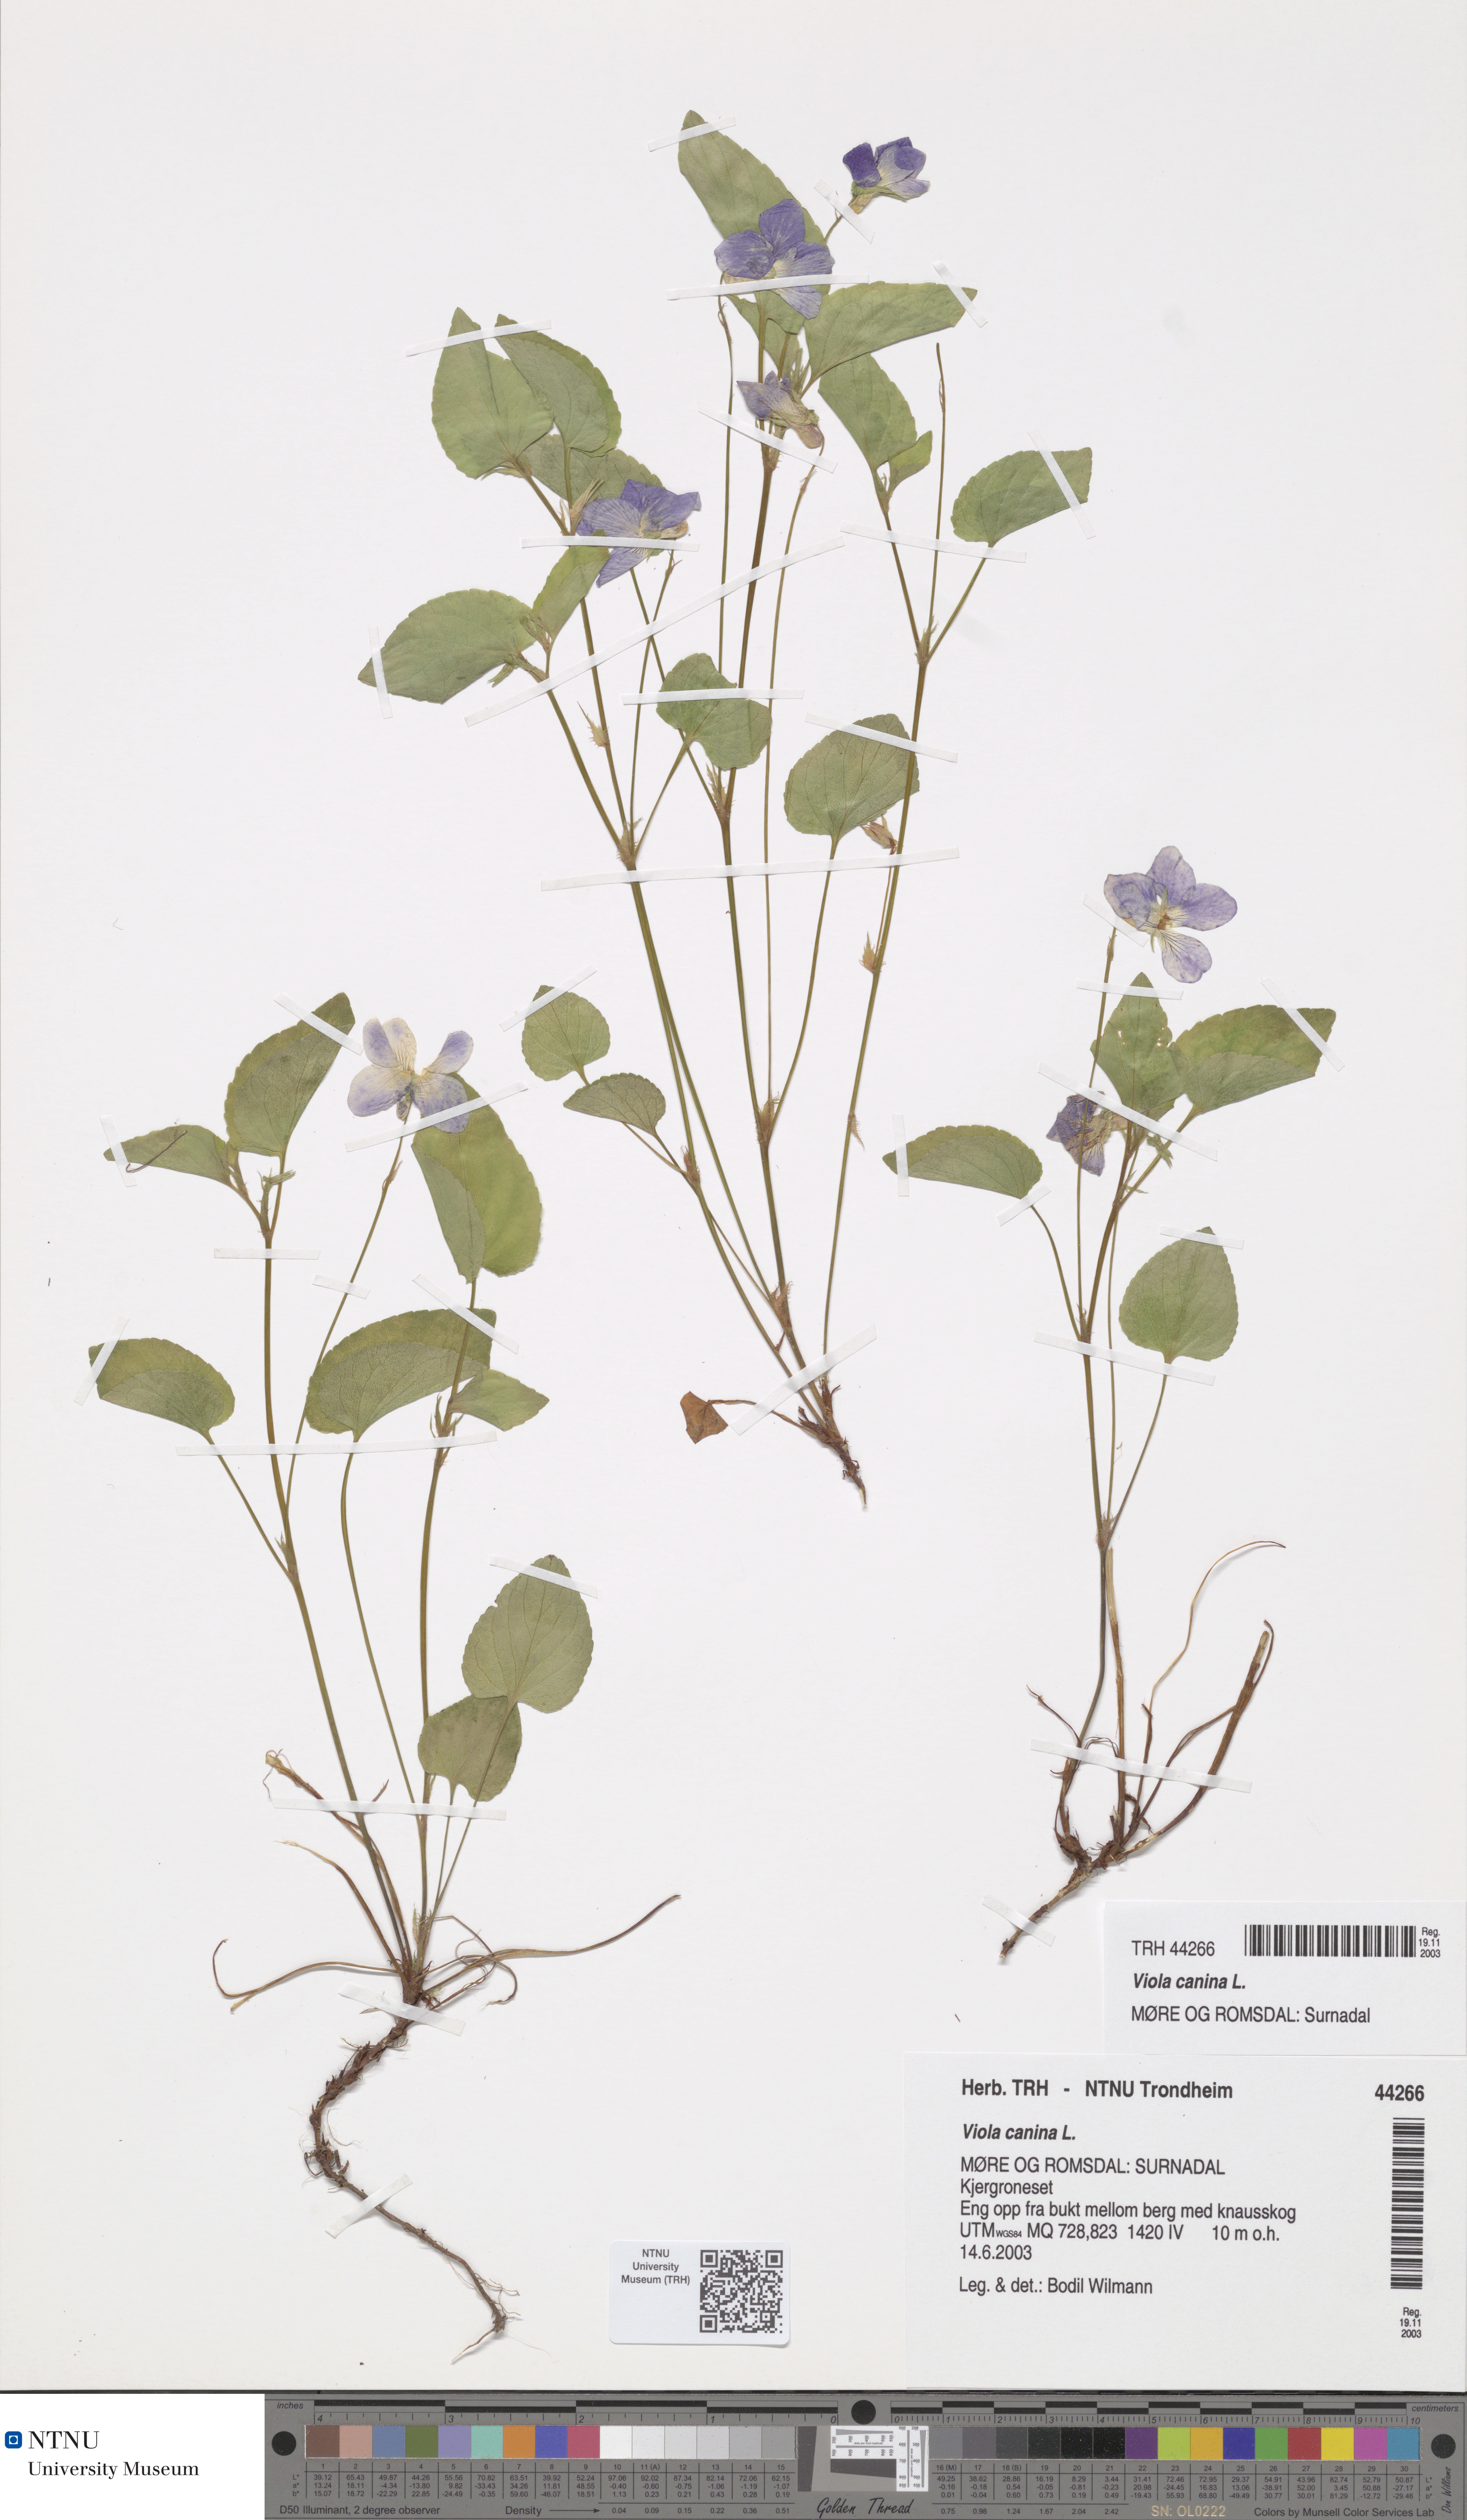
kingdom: Plantae
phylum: Tracheophyta
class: Magnoliopsida
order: Malpighiales
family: Violaceae
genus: Viola
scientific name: Viola canina
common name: Heath dog-violet
